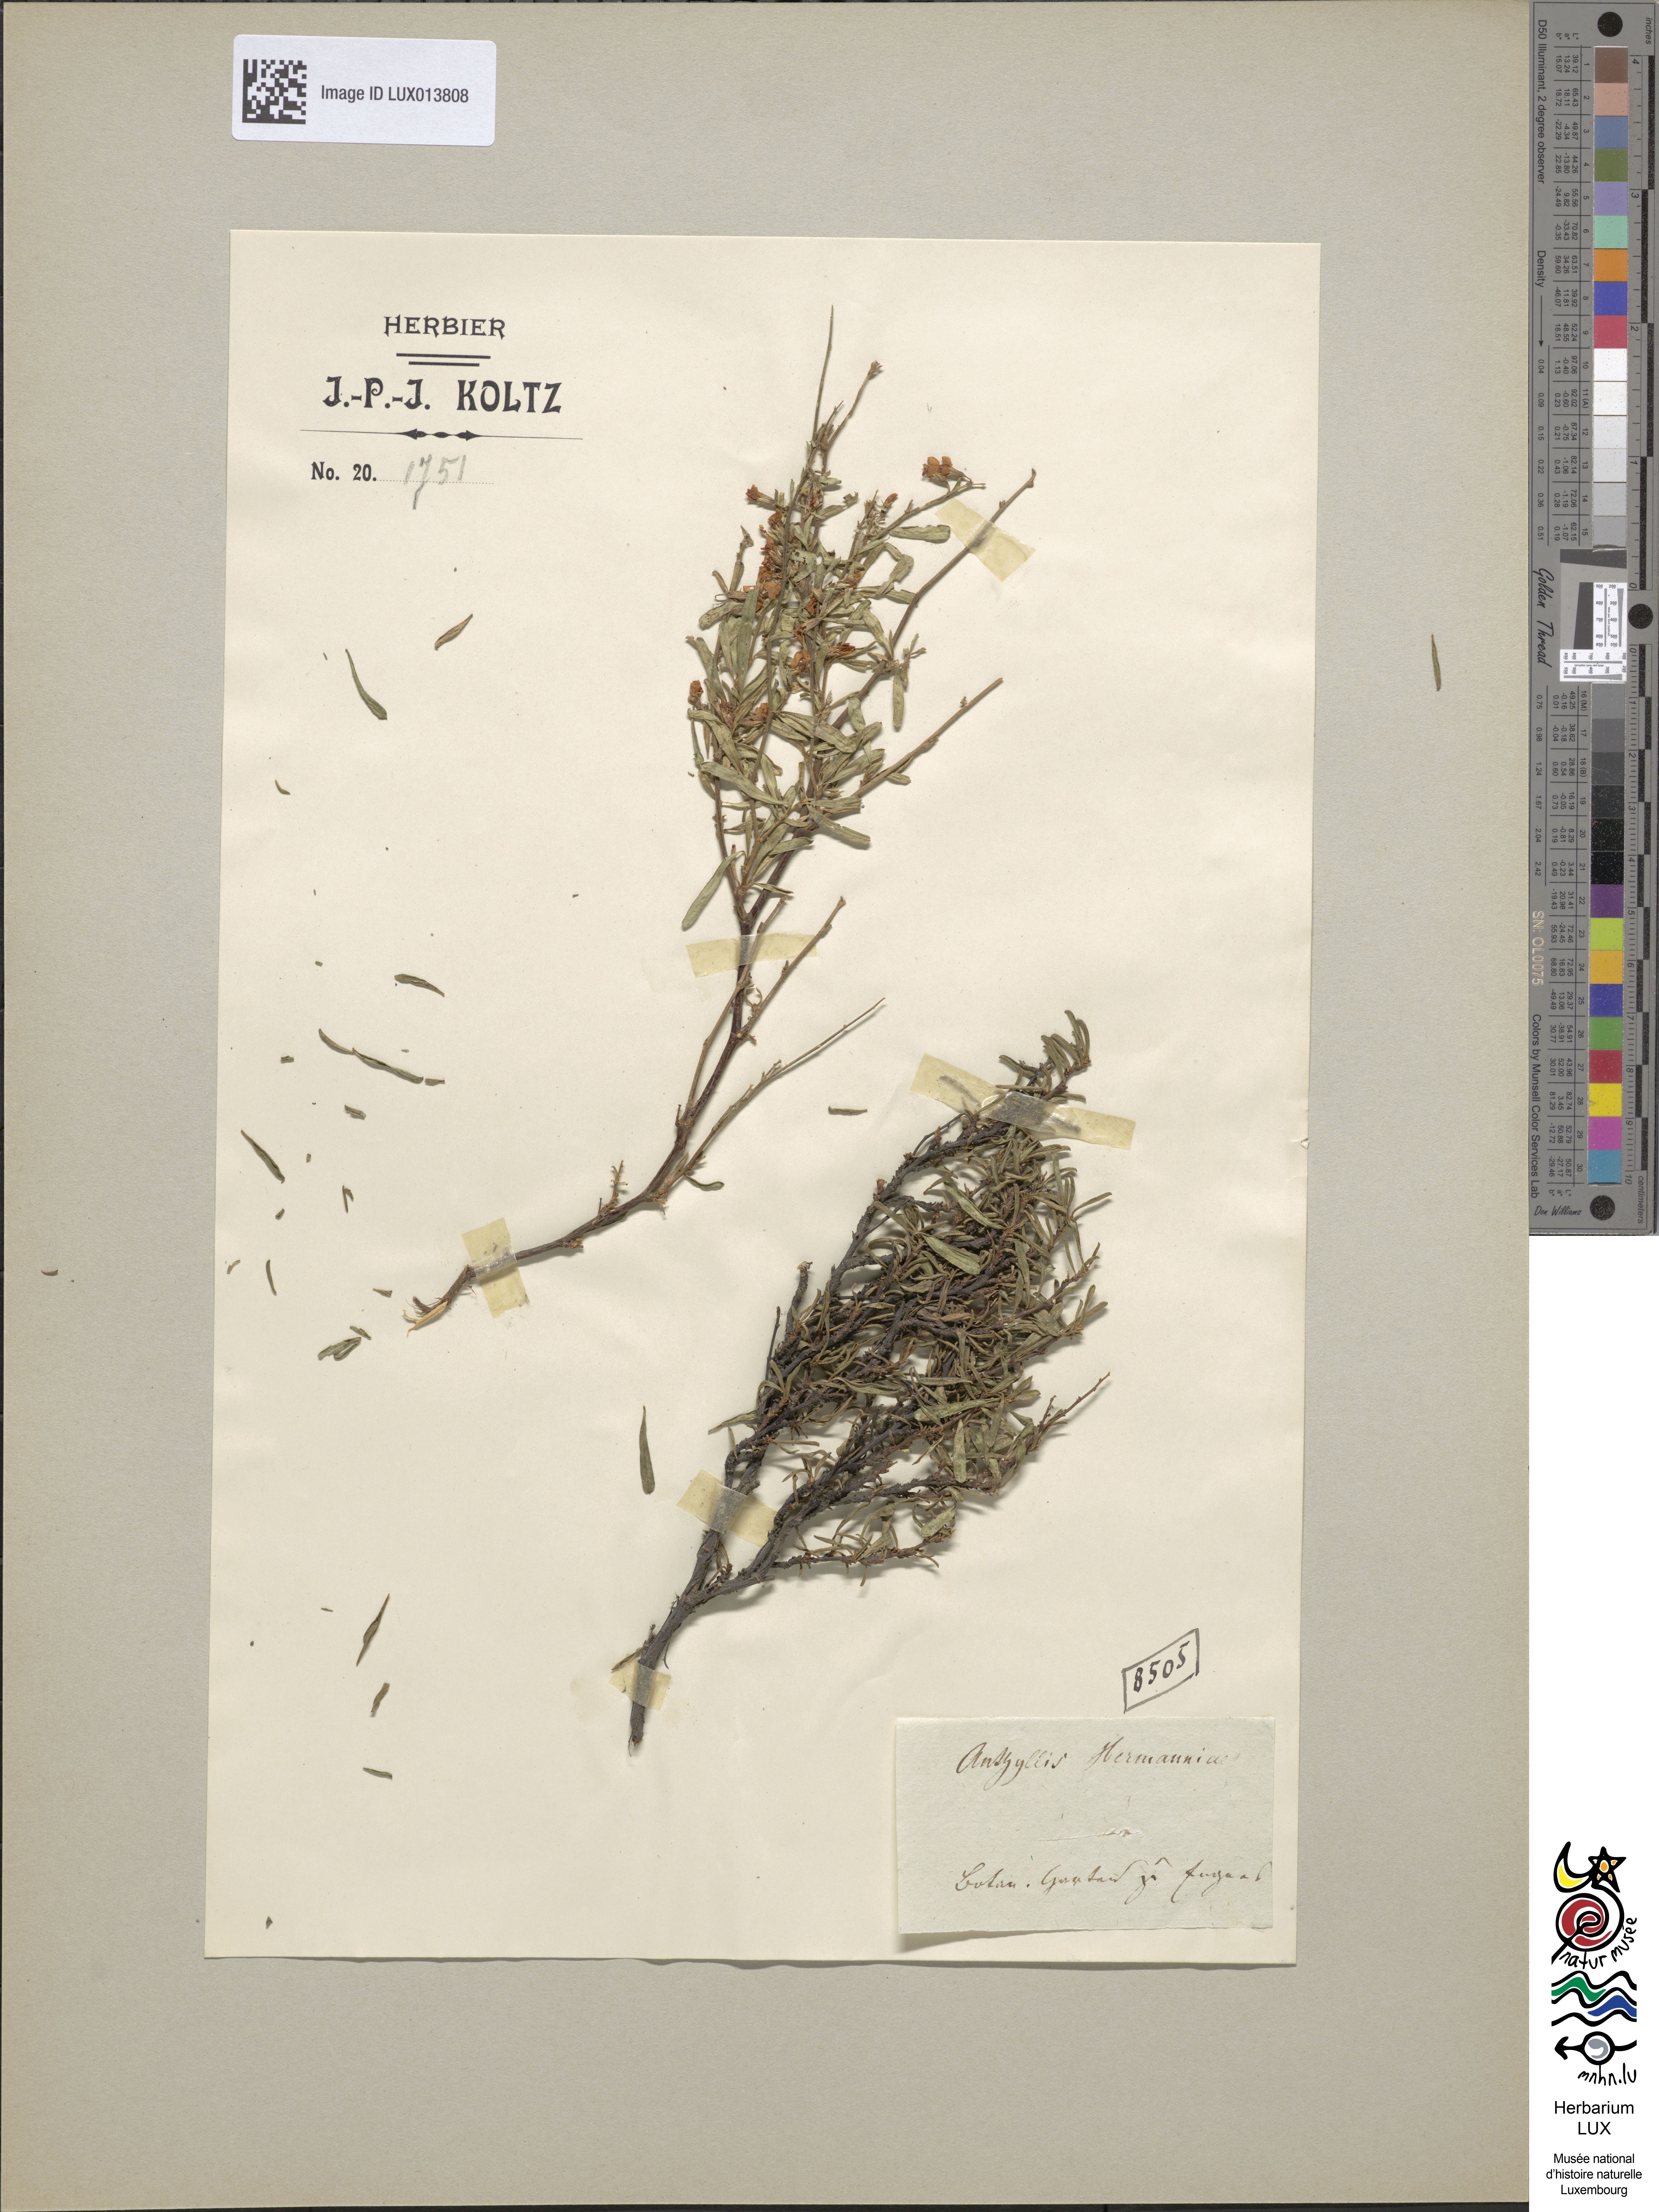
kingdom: Plantae
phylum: Tracheophyta
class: Magnoliopsida
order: Fabales
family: Fabaceae
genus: Anthyllis
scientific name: Anthyllis hermanniae
